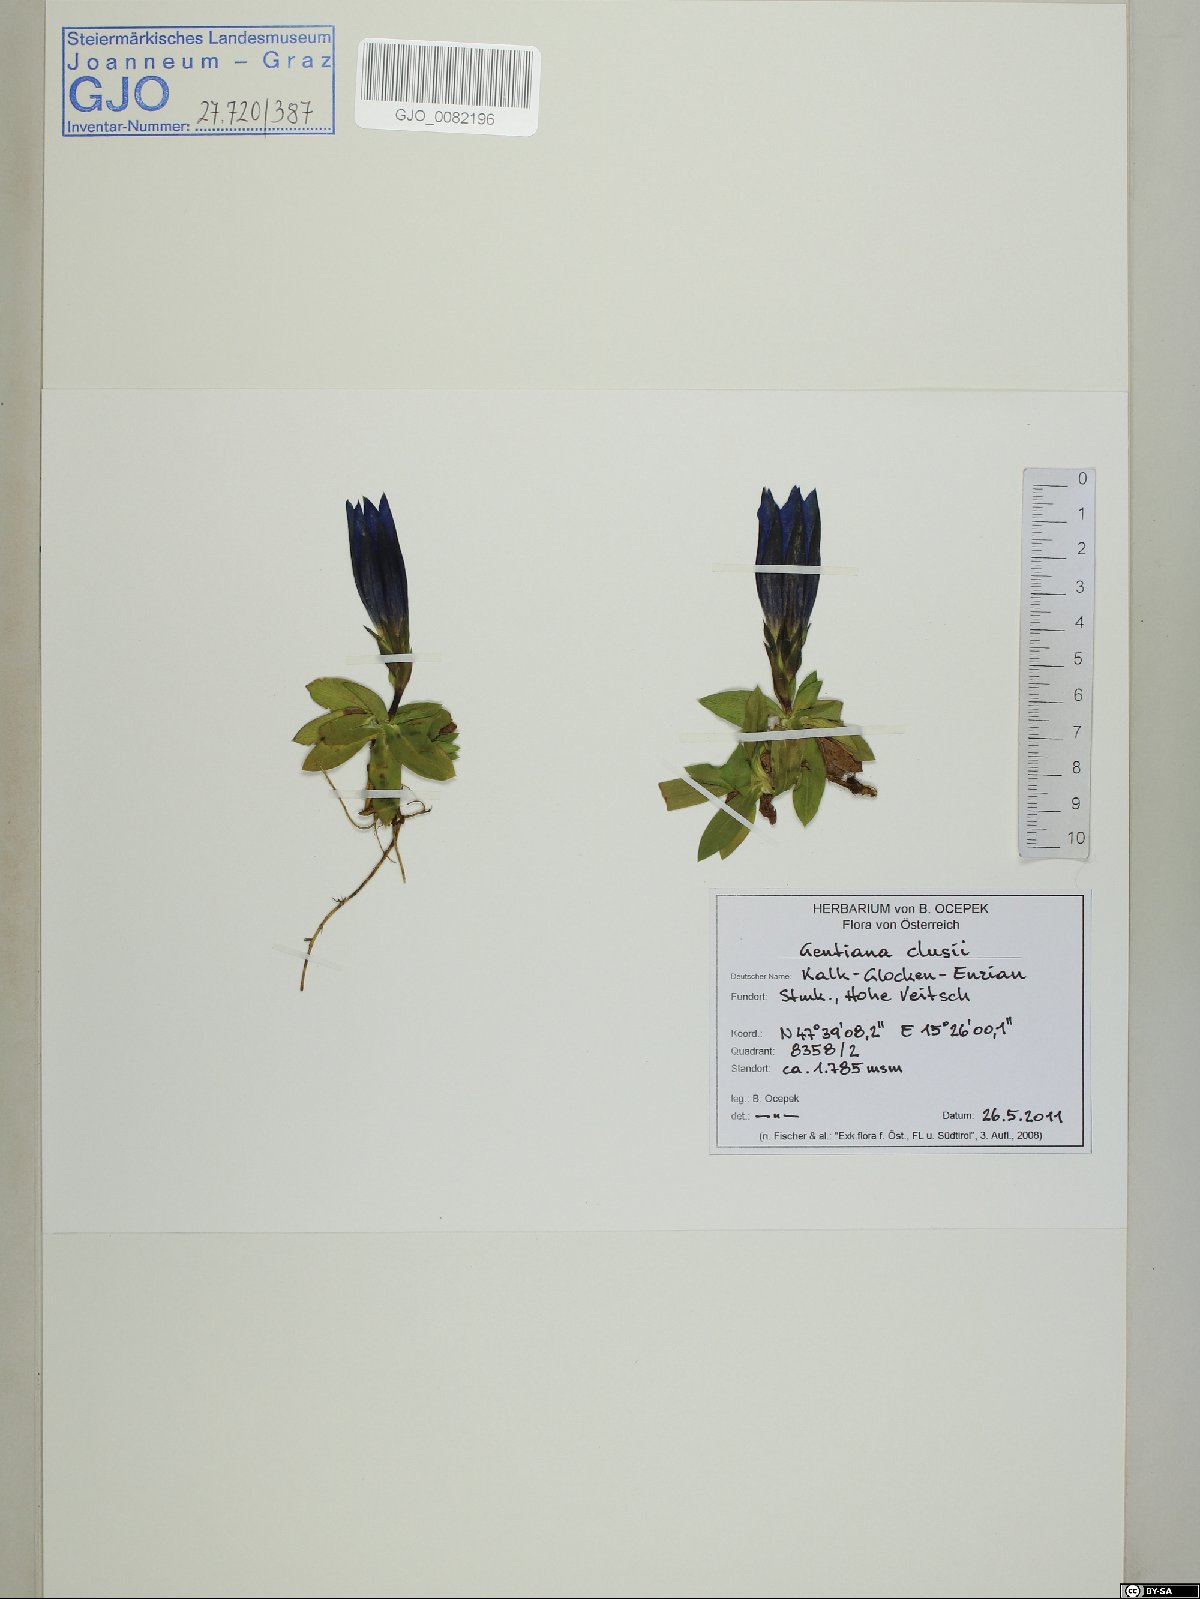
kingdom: Plantae
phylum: Tracheophyta
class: Magnoliopsida
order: Gentianales
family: Gentianaceae
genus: Gentiana
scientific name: Gentiana clusii
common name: Trumpet gentian
